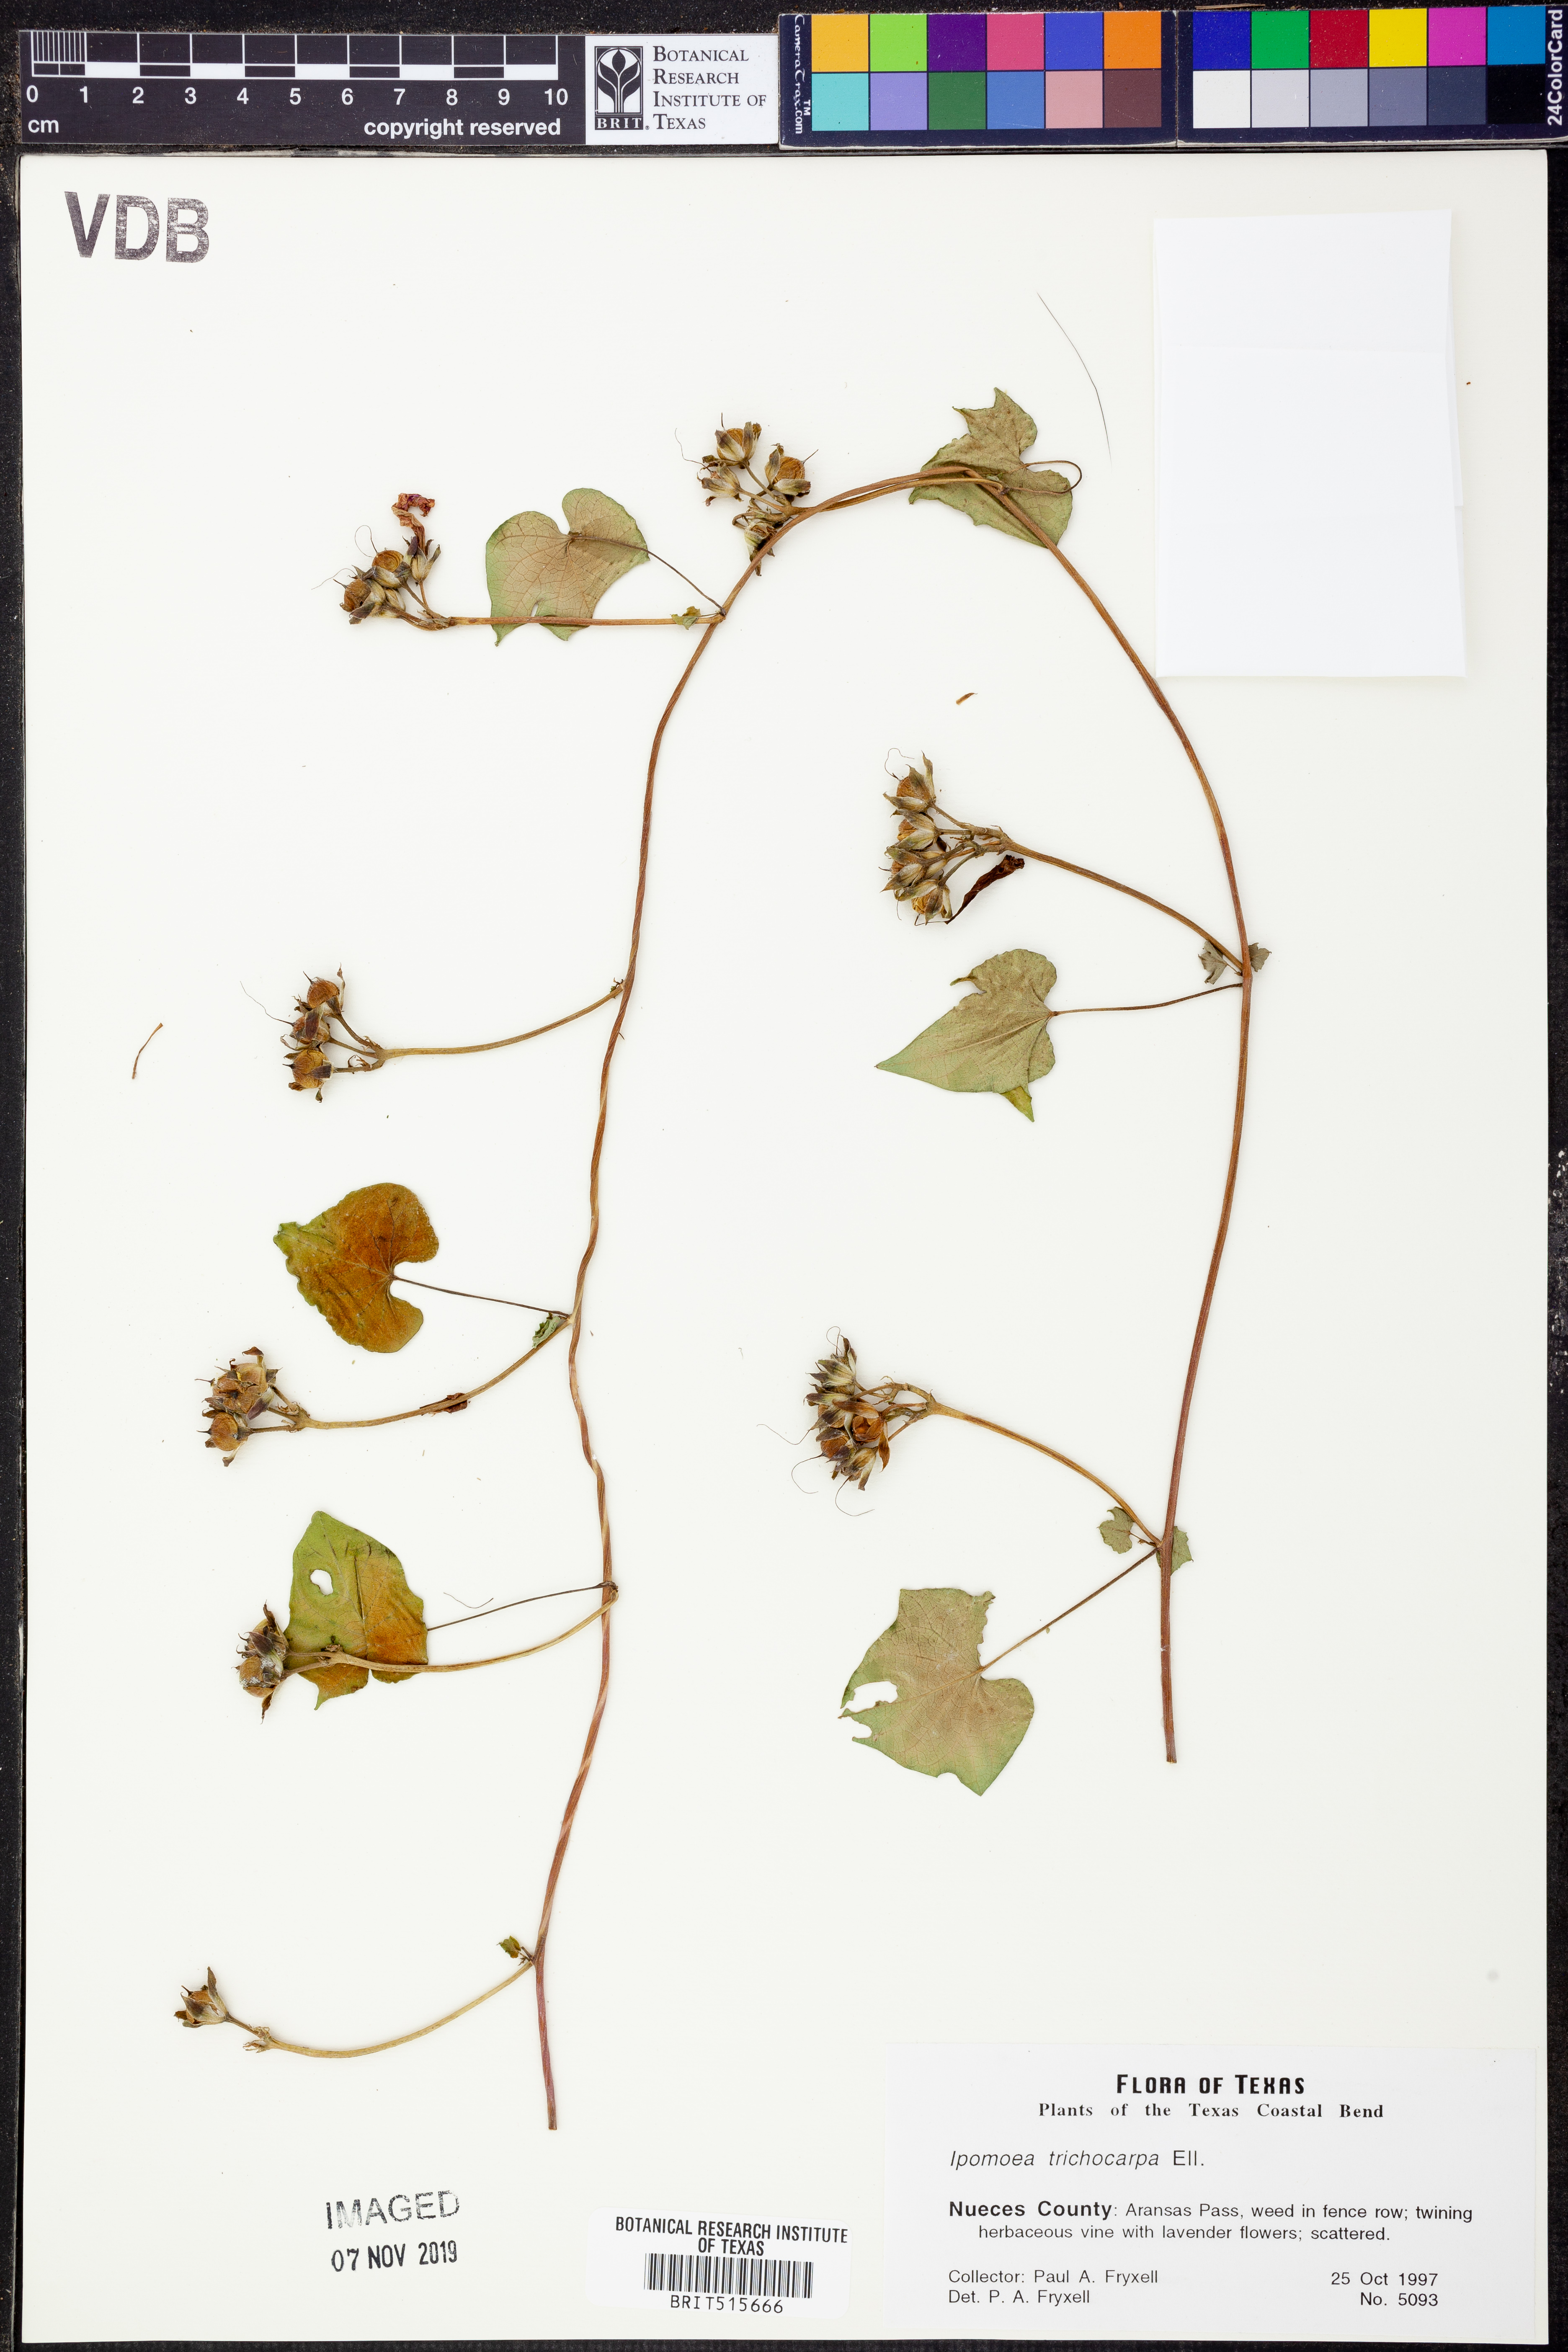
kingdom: Plantae
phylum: Tracheophyta
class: Magnoliopsida
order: Solanales
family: Convolvulaceae
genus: Ipomoea
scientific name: Ipomoea cordatotriloba
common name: Cotton morning glory
